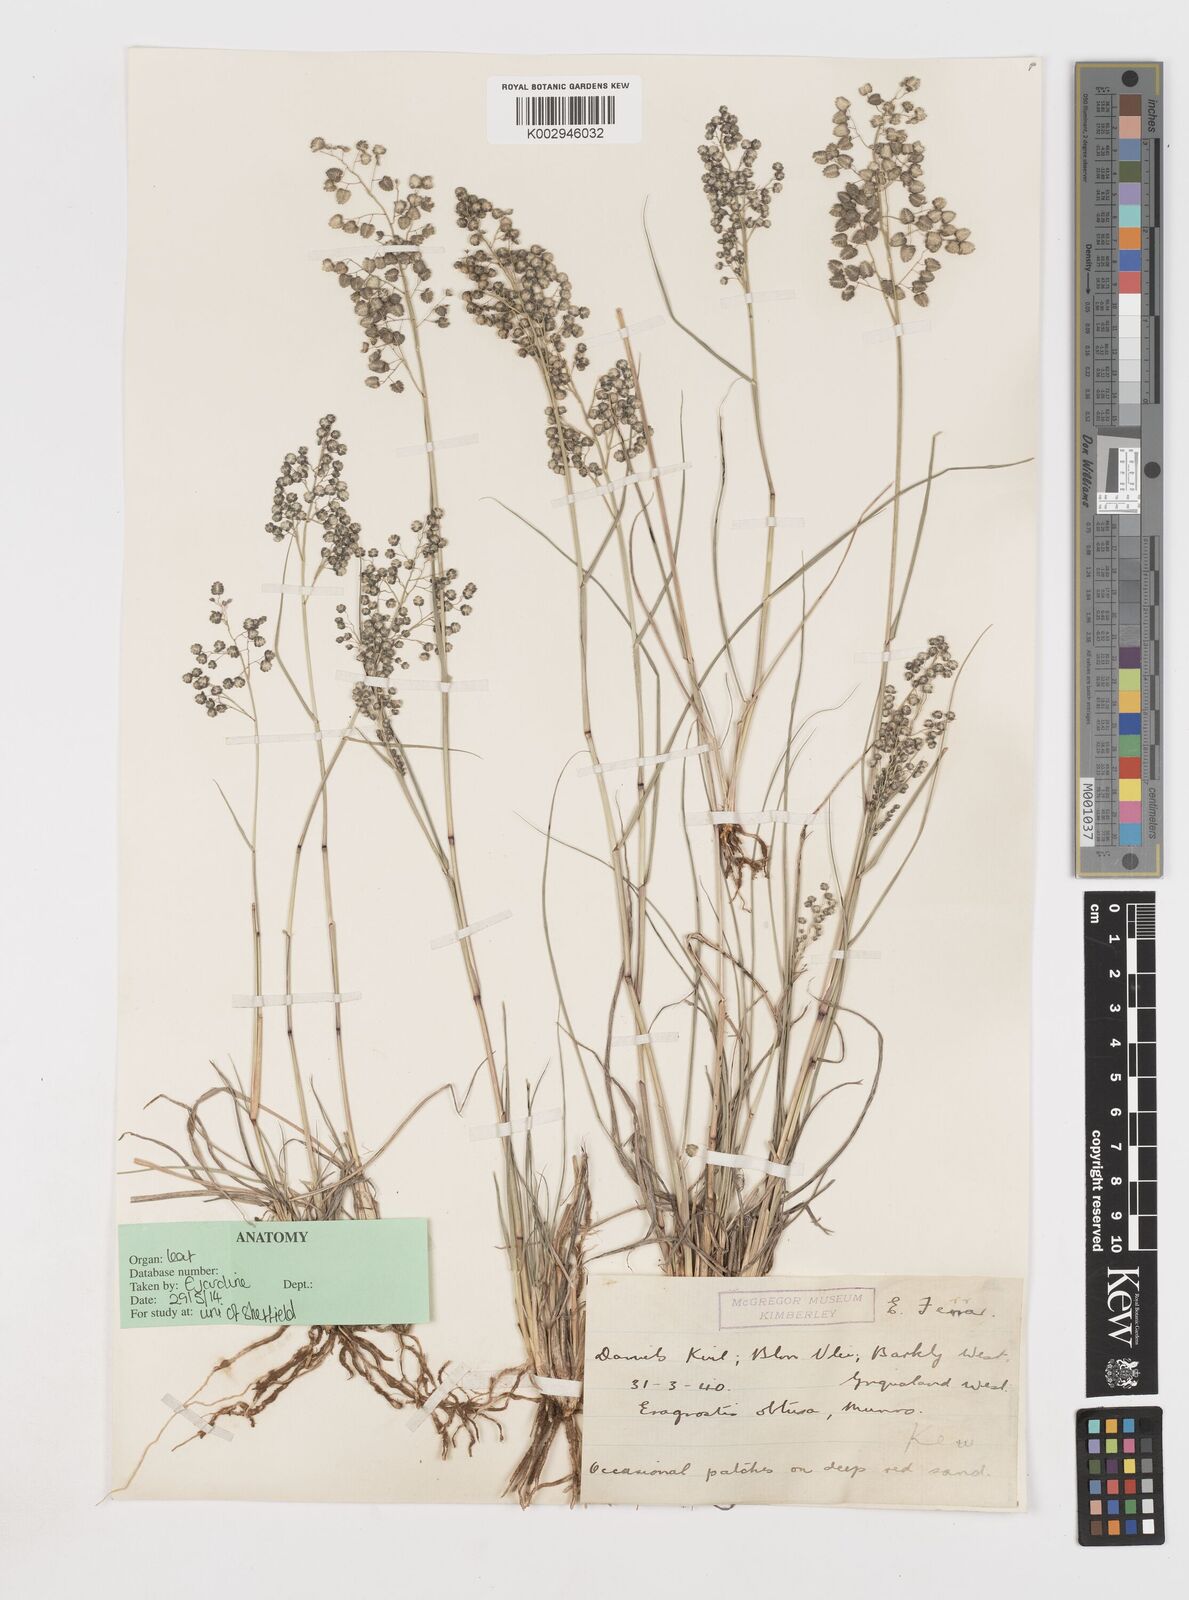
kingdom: Plantae
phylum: Tracheophyta
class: Liliopsida
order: Poales
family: Poaceae
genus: Eragrostis
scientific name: Eragrostis obtusa
